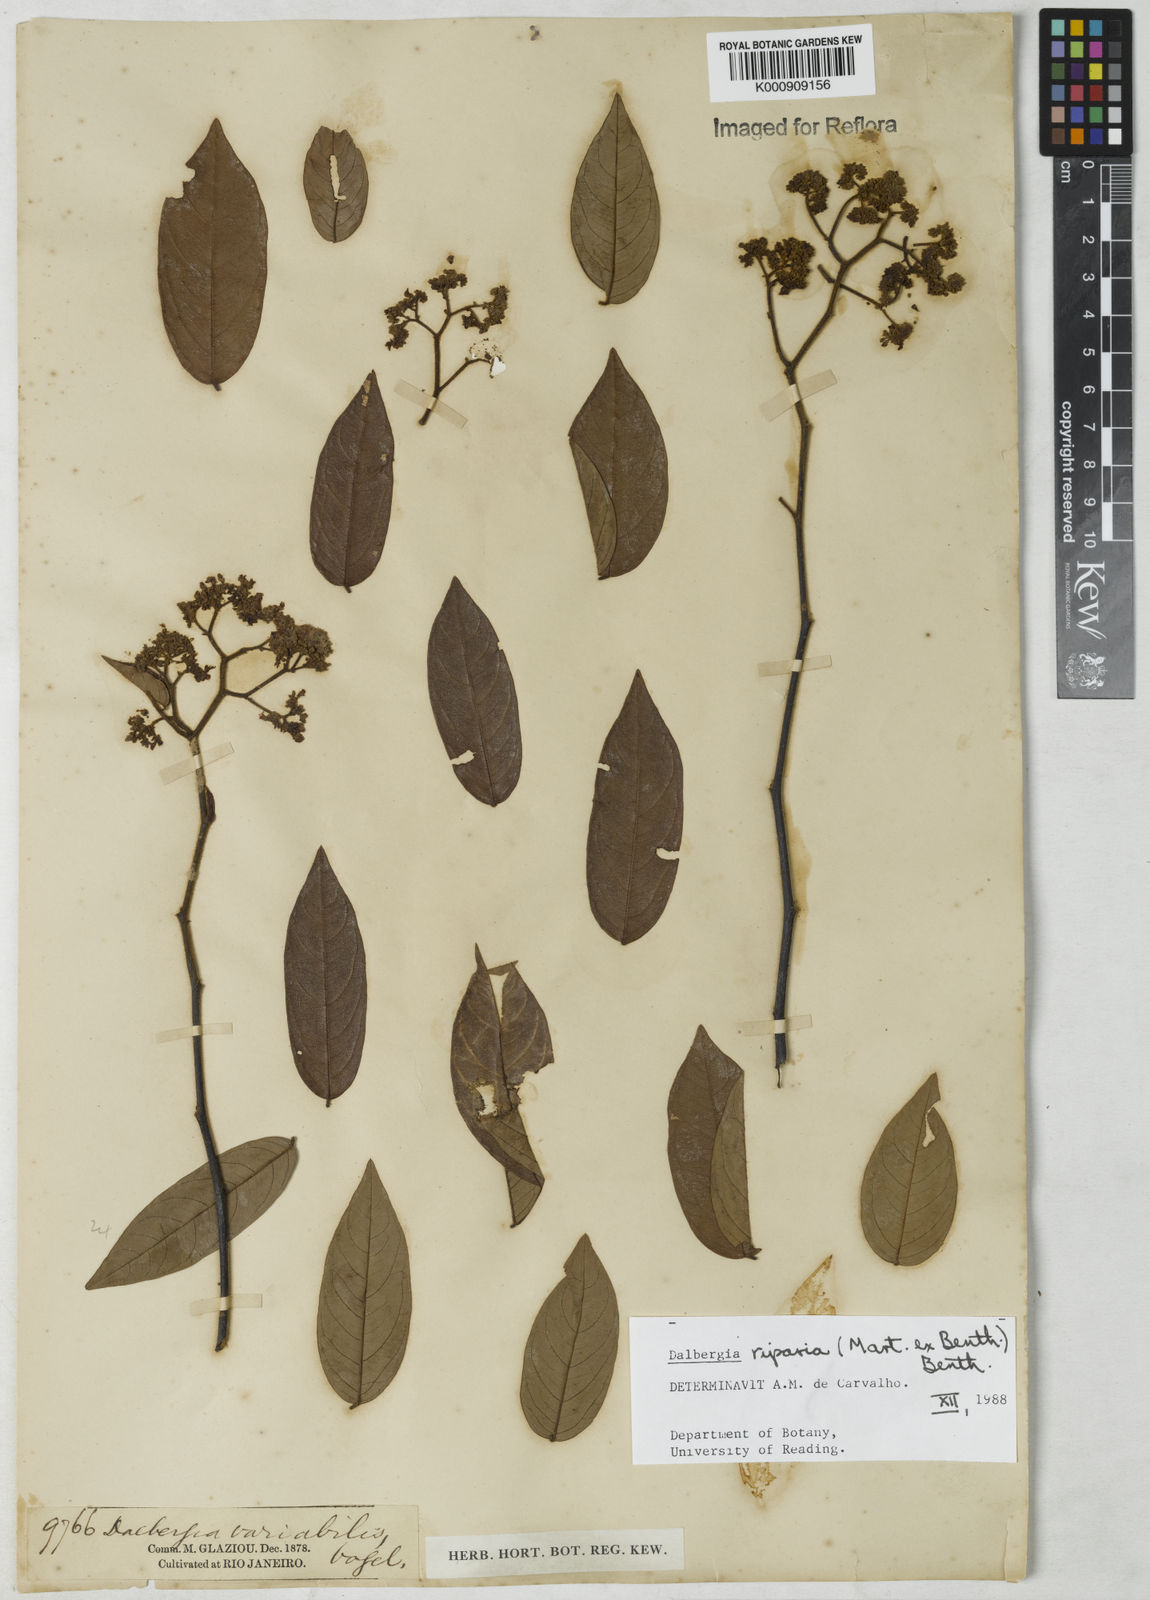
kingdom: Plantae
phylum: Tracheophyta
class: Magnoliopsida
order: Fabales
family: Fabaceae
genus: Dalbergia
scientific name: Dalbergia riparia
